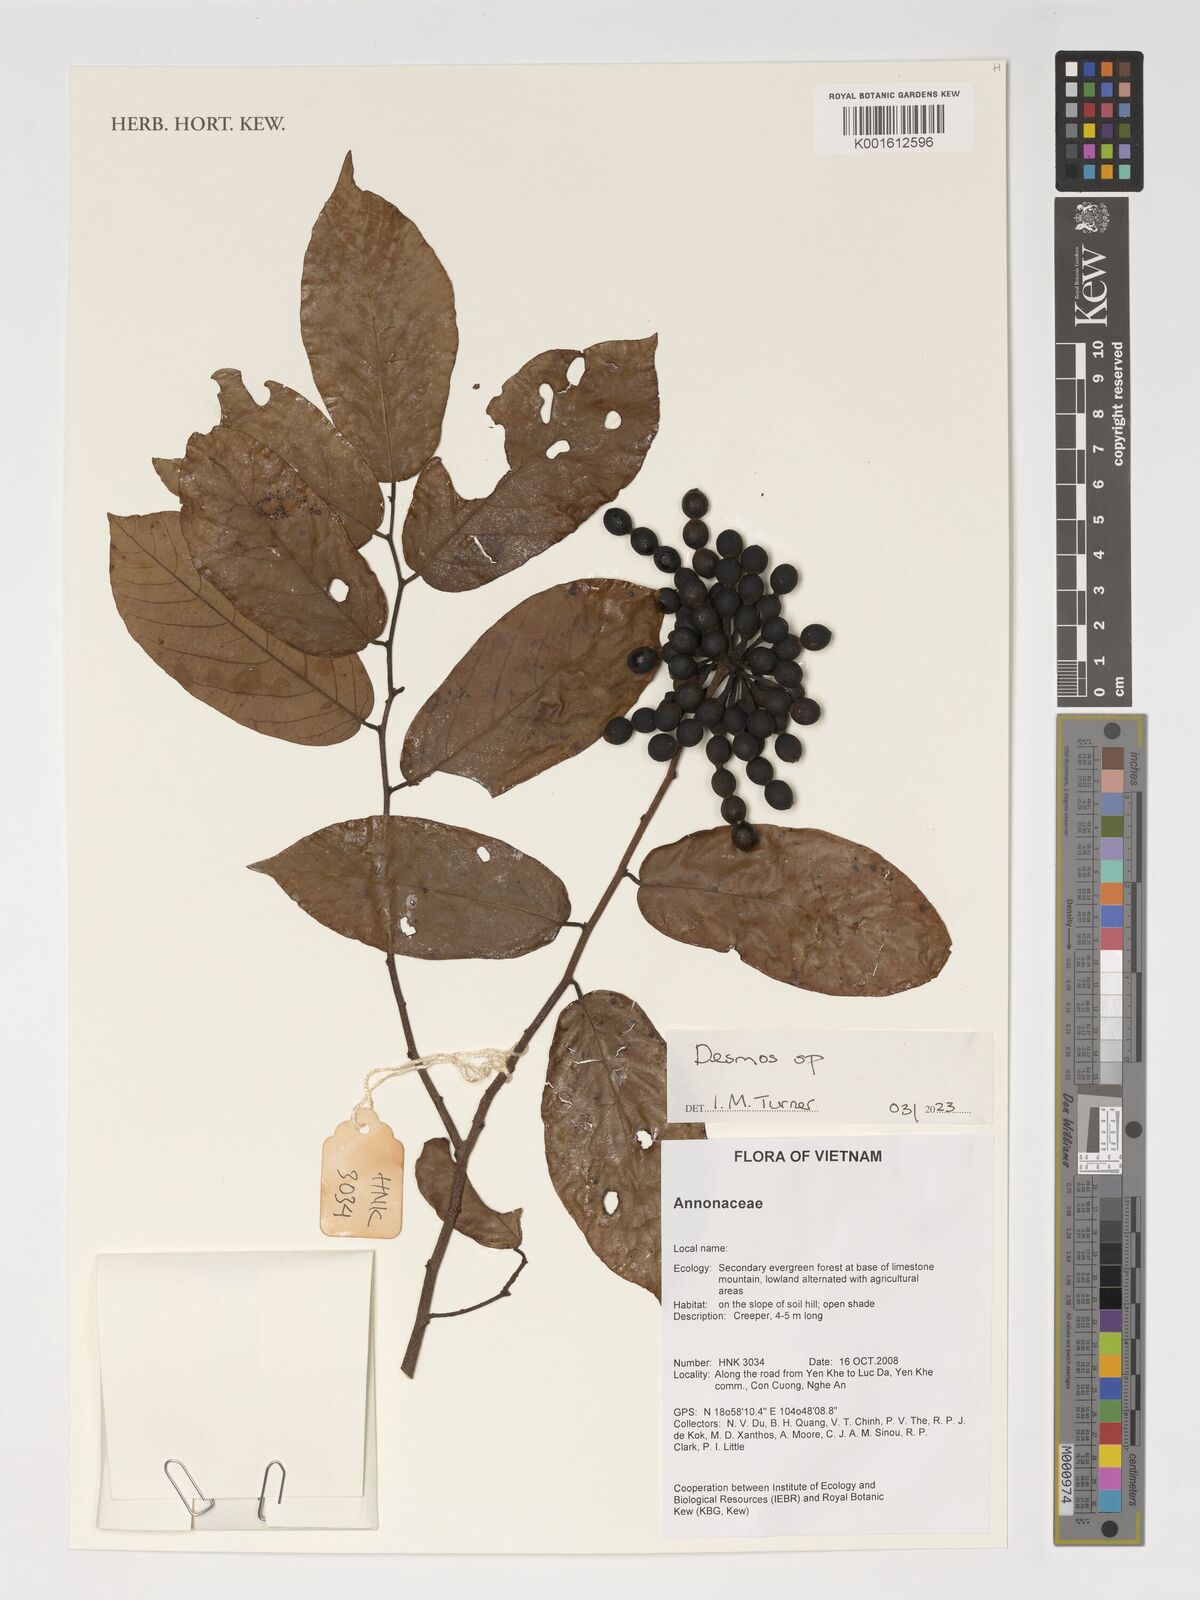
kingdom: Plantae
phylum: Tracheophyta
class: Magnoliopsida
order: Magnoliales
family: Annonaceae
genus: Desmos
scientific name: Desmos
